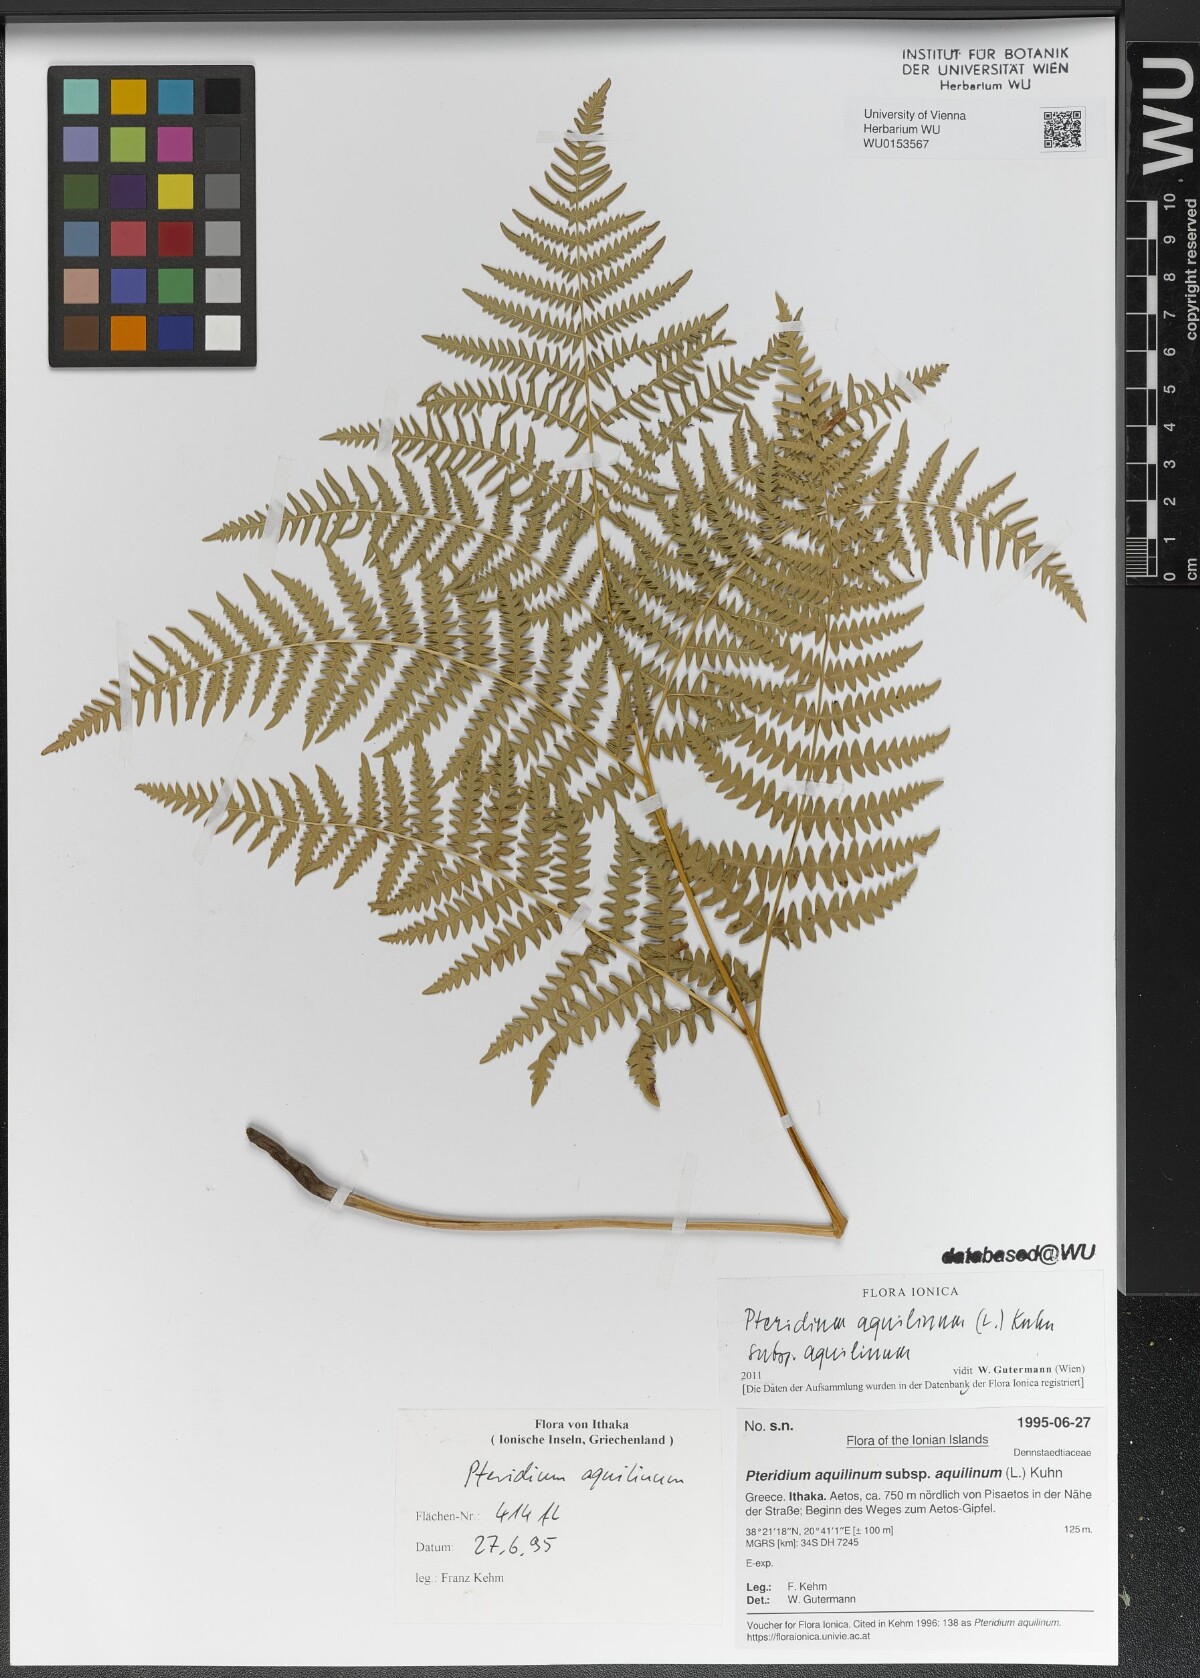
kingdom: Plantae
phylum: Tracheophyta
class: Polypodiopsida
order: Polypodiales
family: Dennstaedtiaceae
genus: Pteridium
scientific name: Pteridium aquilinum
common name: Bracken
